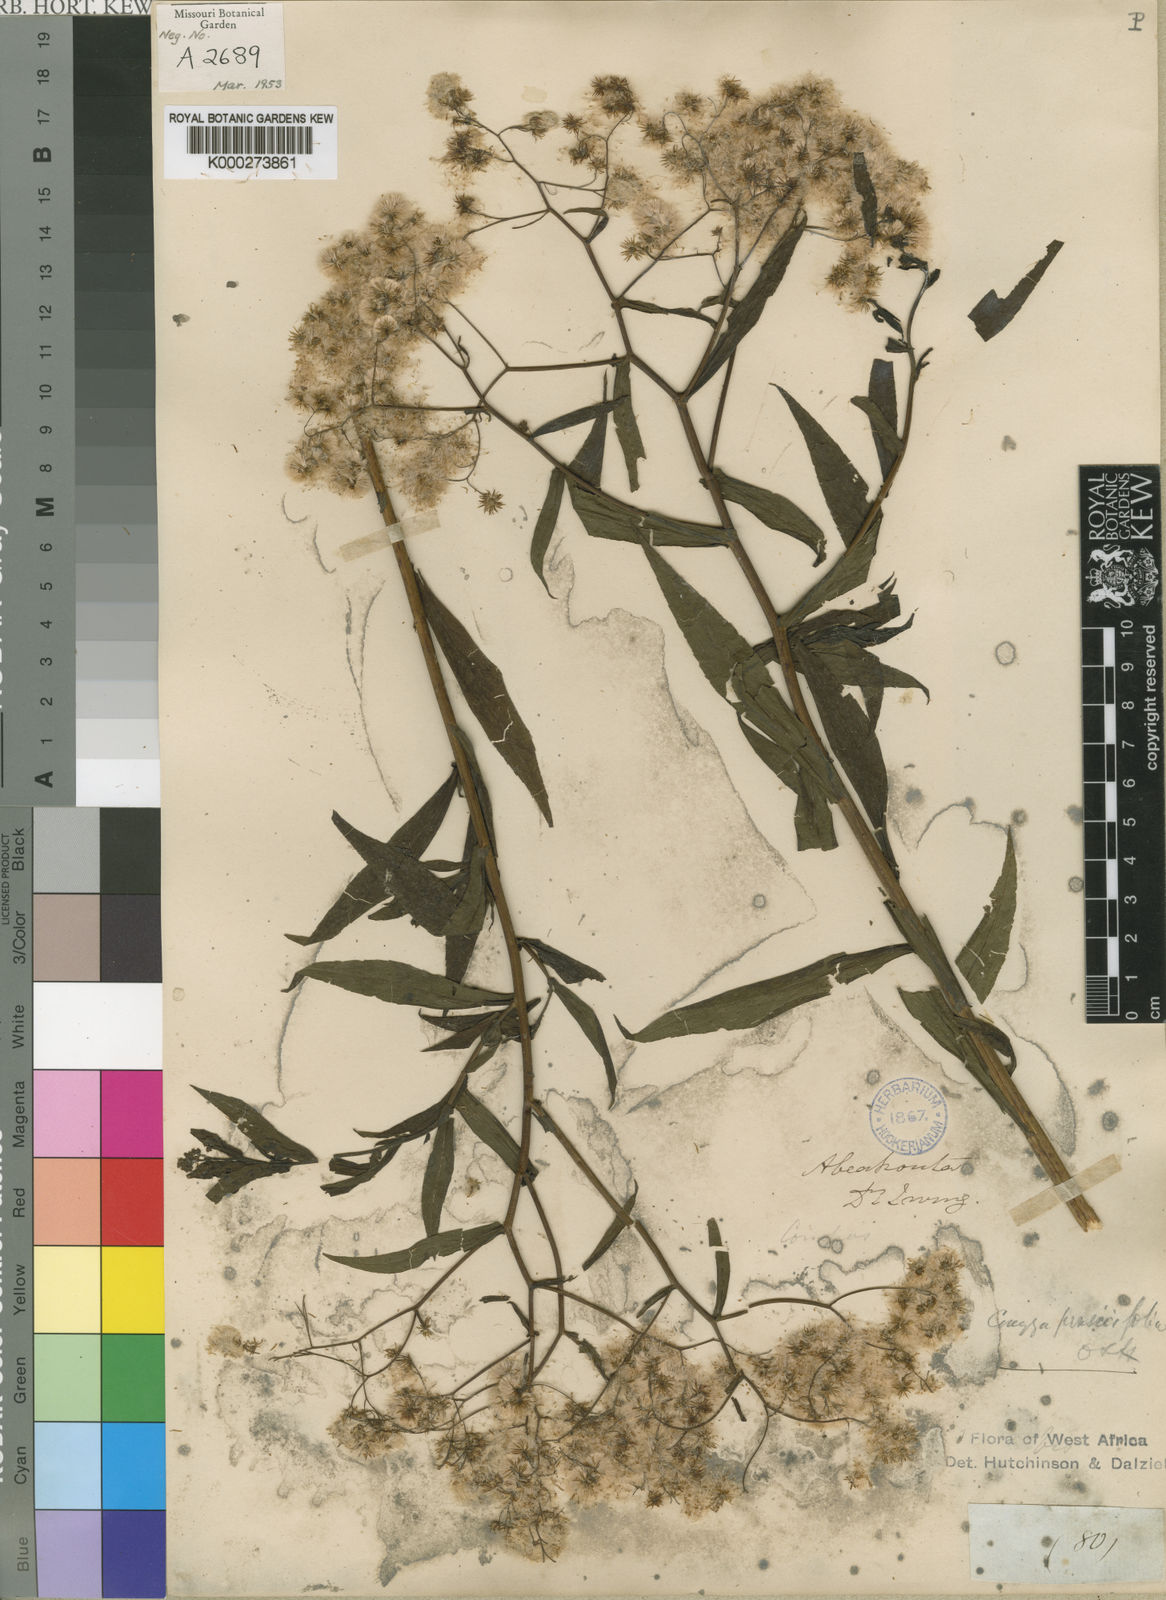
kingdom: Plantae
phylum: Tracheophyta
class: Magnoliopsida
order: Asterales
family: Asteraceae
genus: Nidorella
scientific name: Nidorella attenuata
